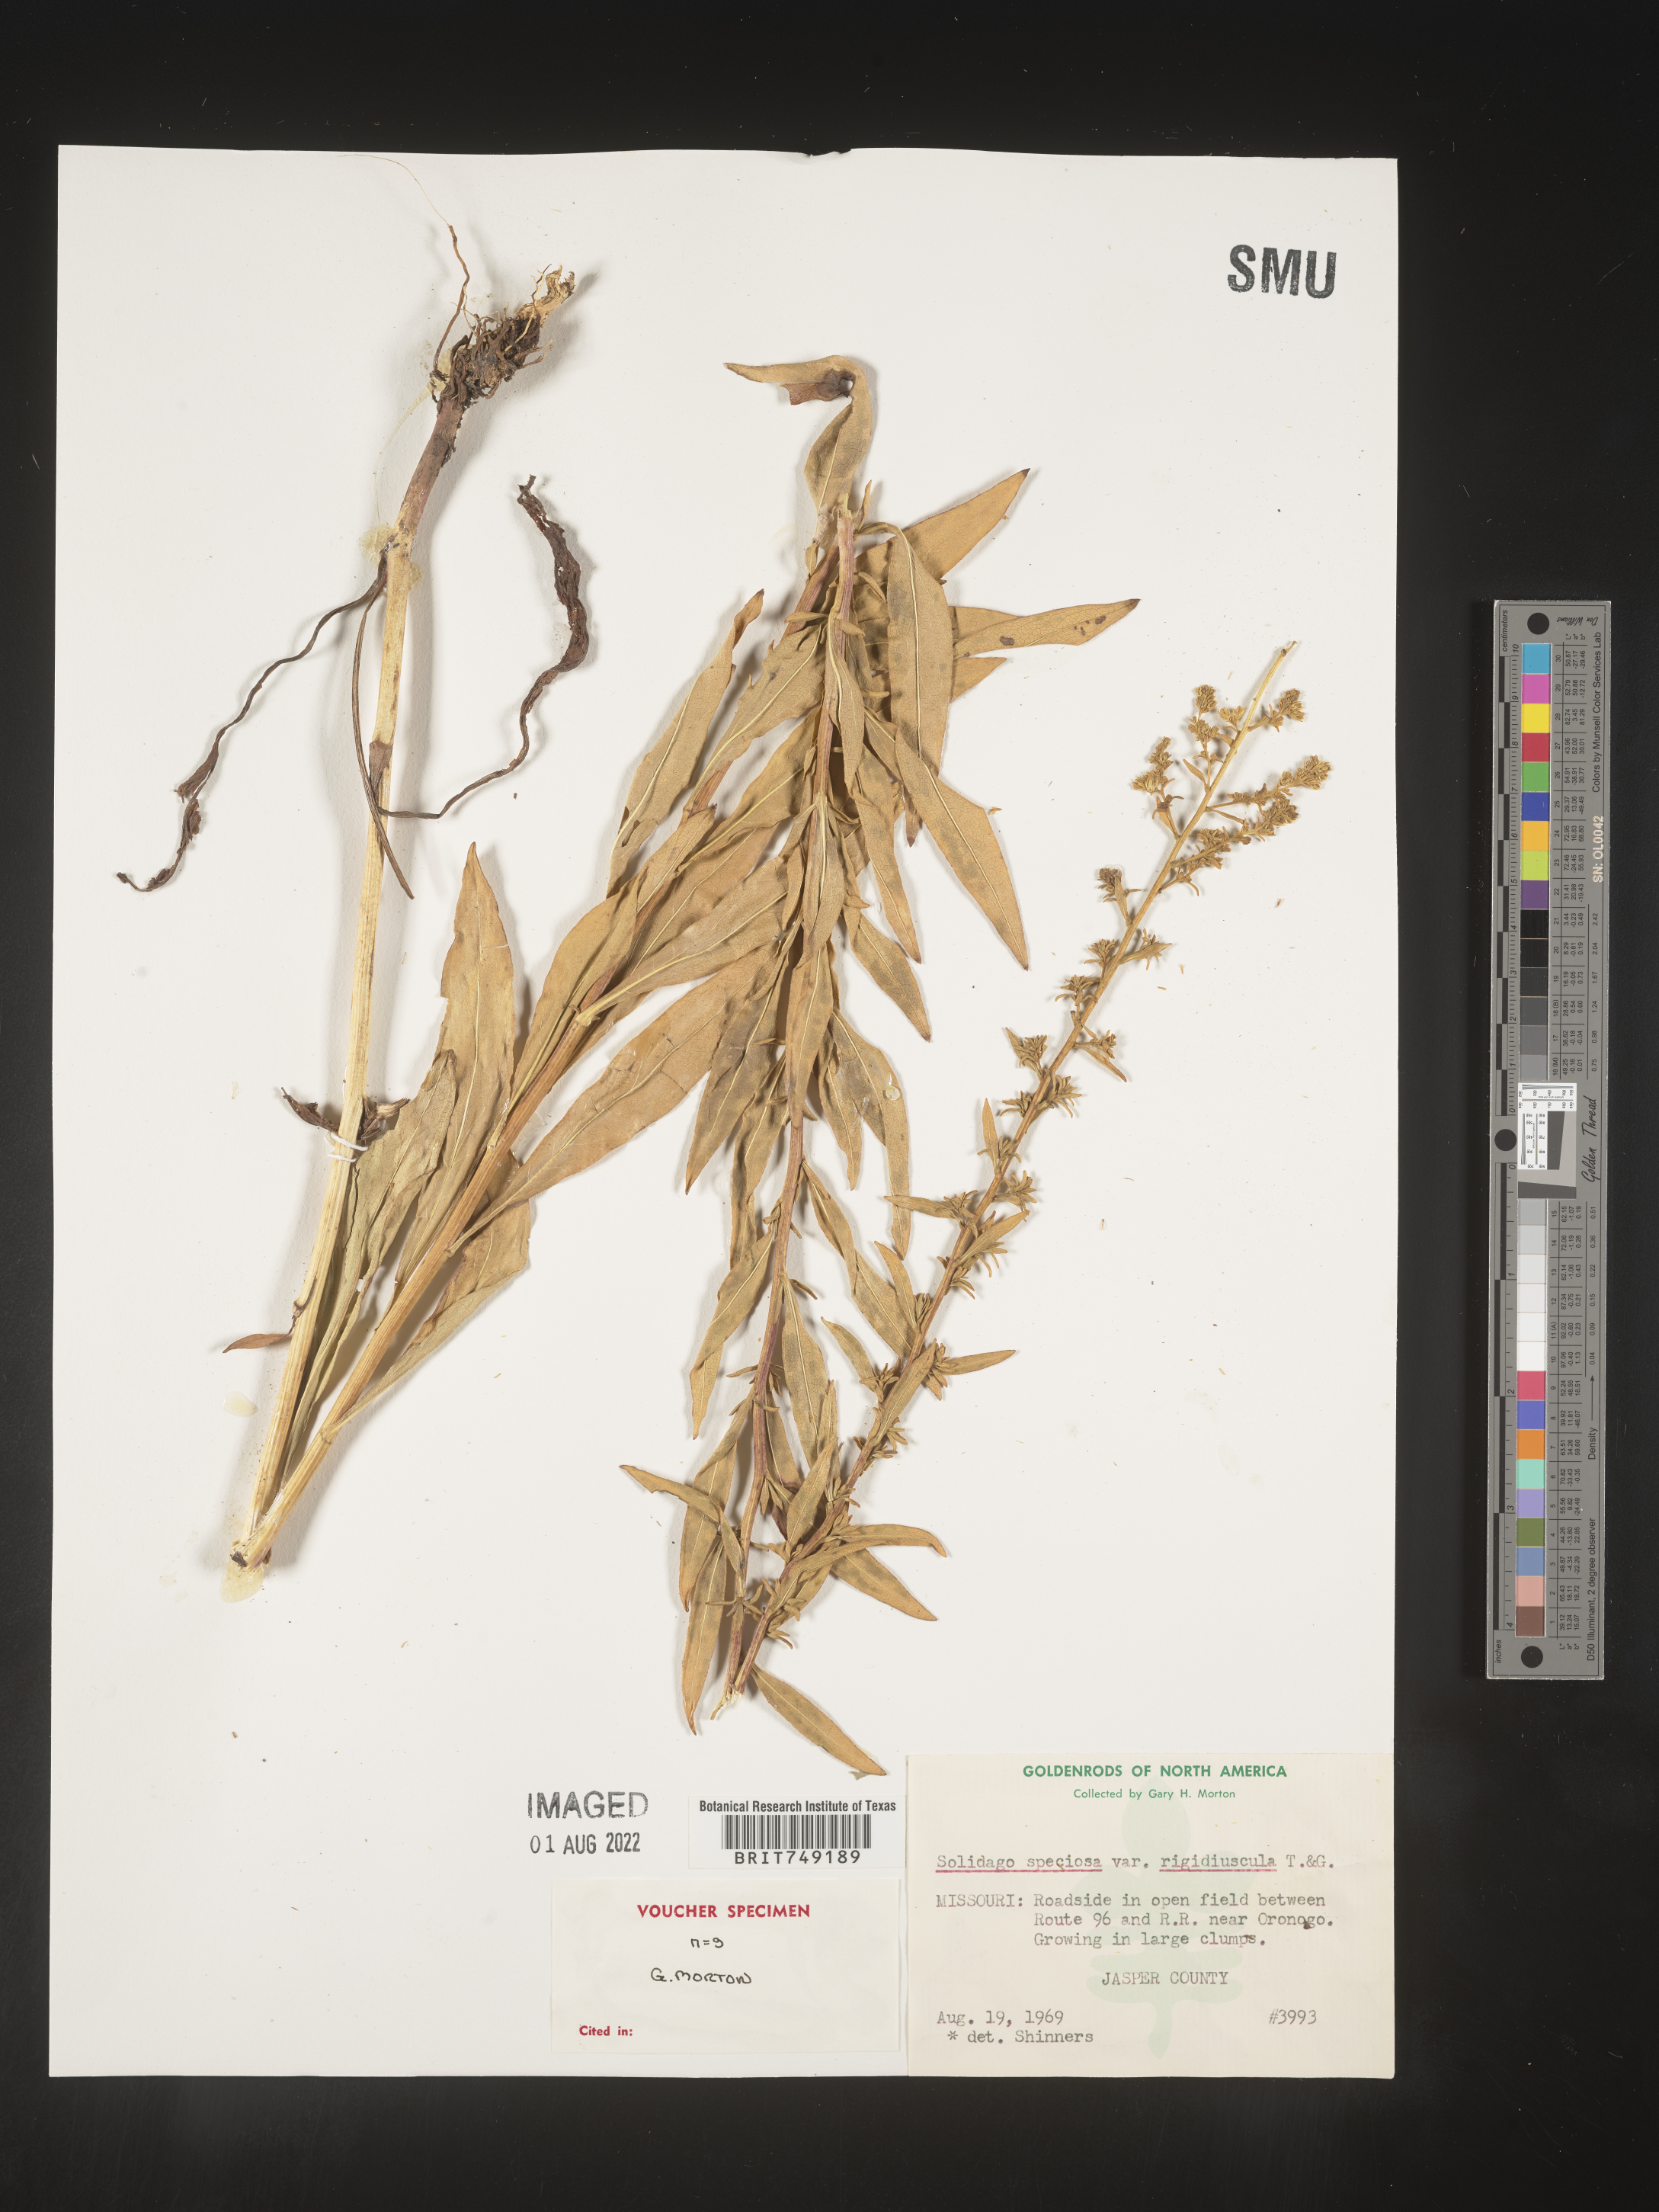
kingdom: Plantae
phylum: Tracheophyta
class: Magnoliopsida
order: Asterales
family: Asteraceae
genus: Solidago
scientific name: Solidago speciosa
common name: Showy goldenrod
